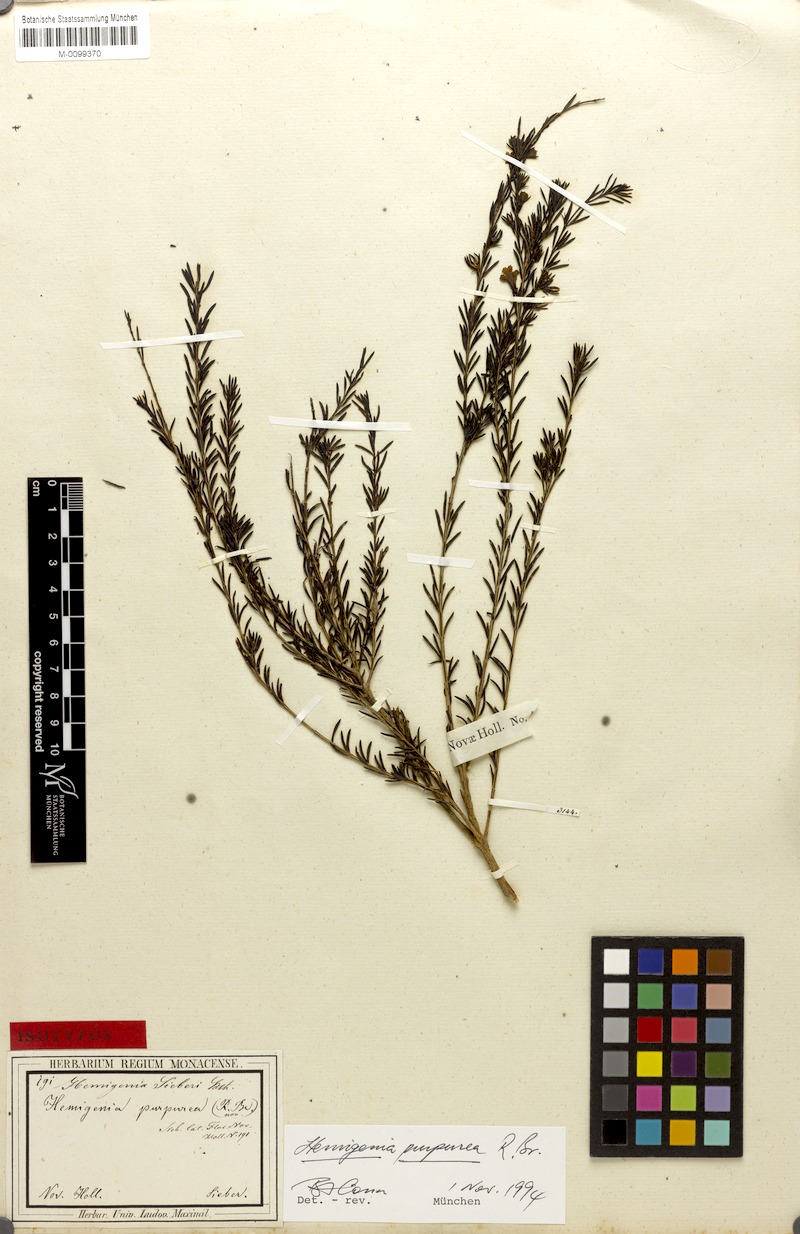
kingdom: Plantae
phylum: Tracheophyta
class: Magnoliopsida
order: Lamiales
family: Lamiaceae
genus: Hemigenia
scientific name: Hemigenia purpurea
